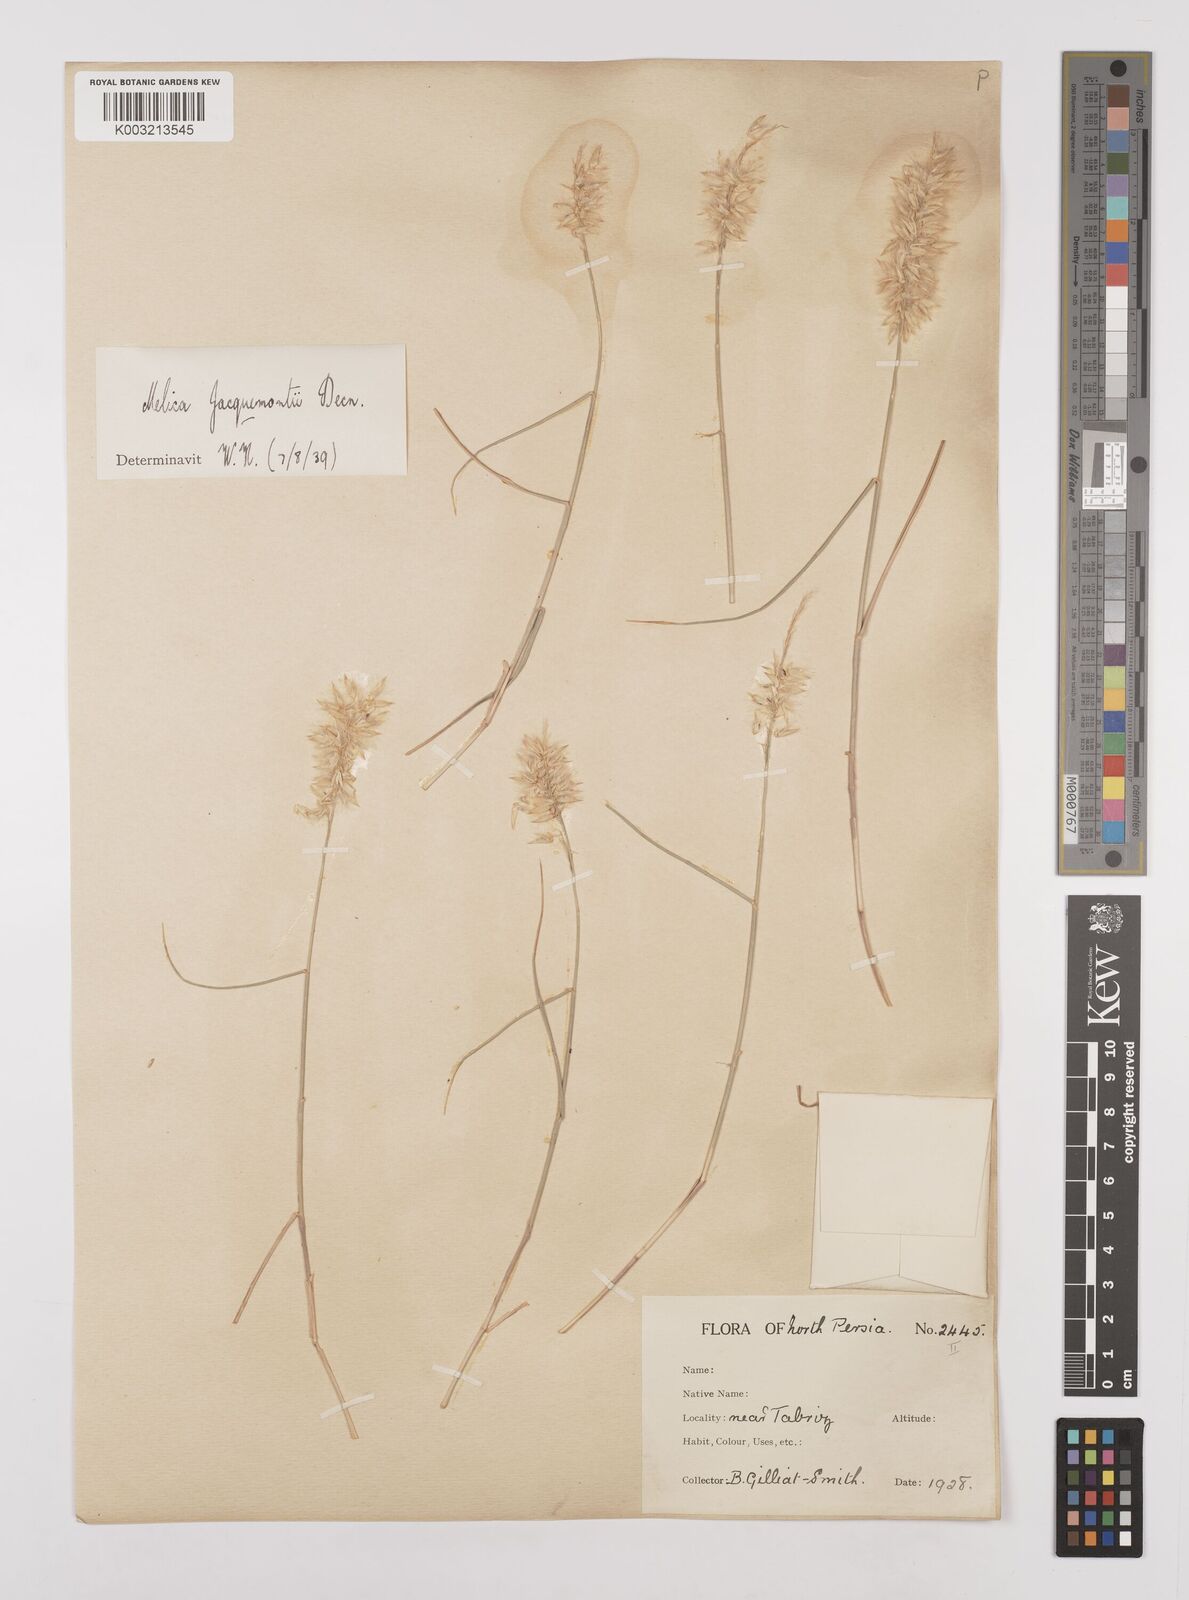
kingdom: Plantae
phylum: Tracheophyta
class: Liliopsida
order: Poales
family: Poaceae
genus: Melica
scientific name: Melica persica
